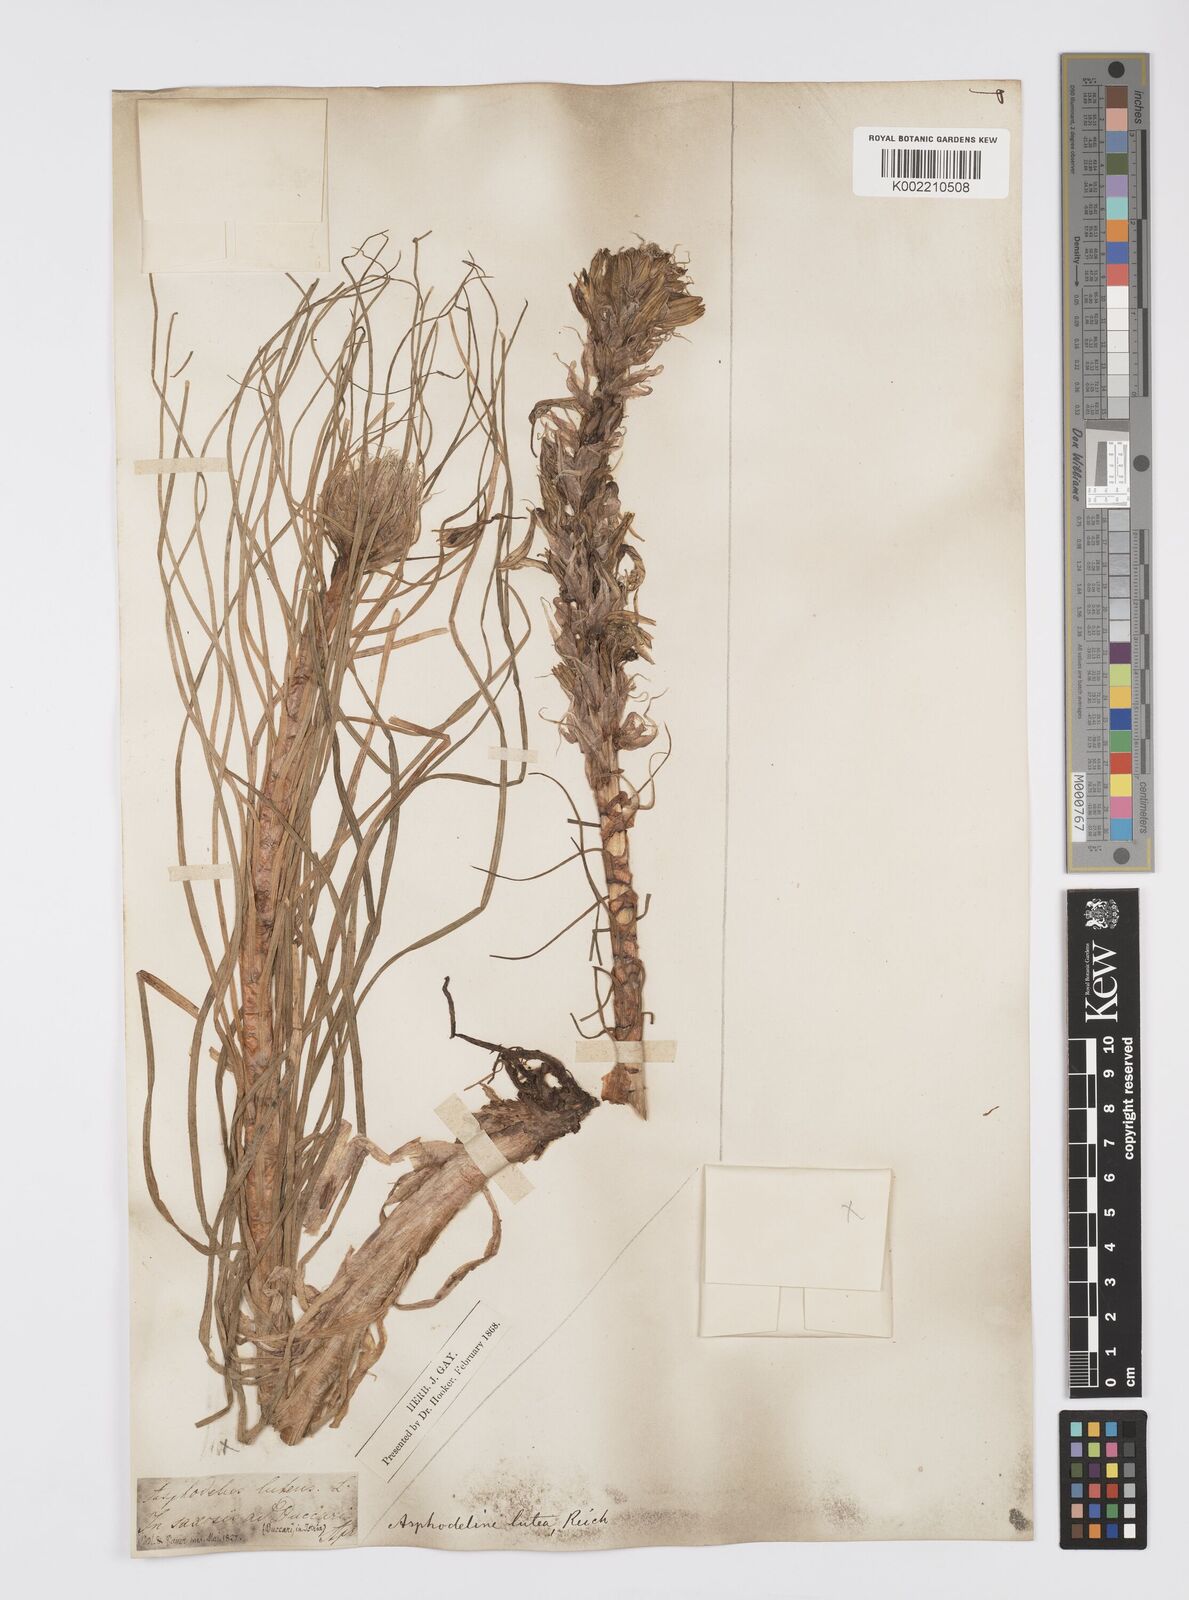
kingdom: Plantae
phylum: Tracheophyta
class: Liliopsida
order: Asparagales
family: Asphodelaceae
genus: Asphodeline
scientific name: Asphodeline lutea
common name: Yellow asphodel
